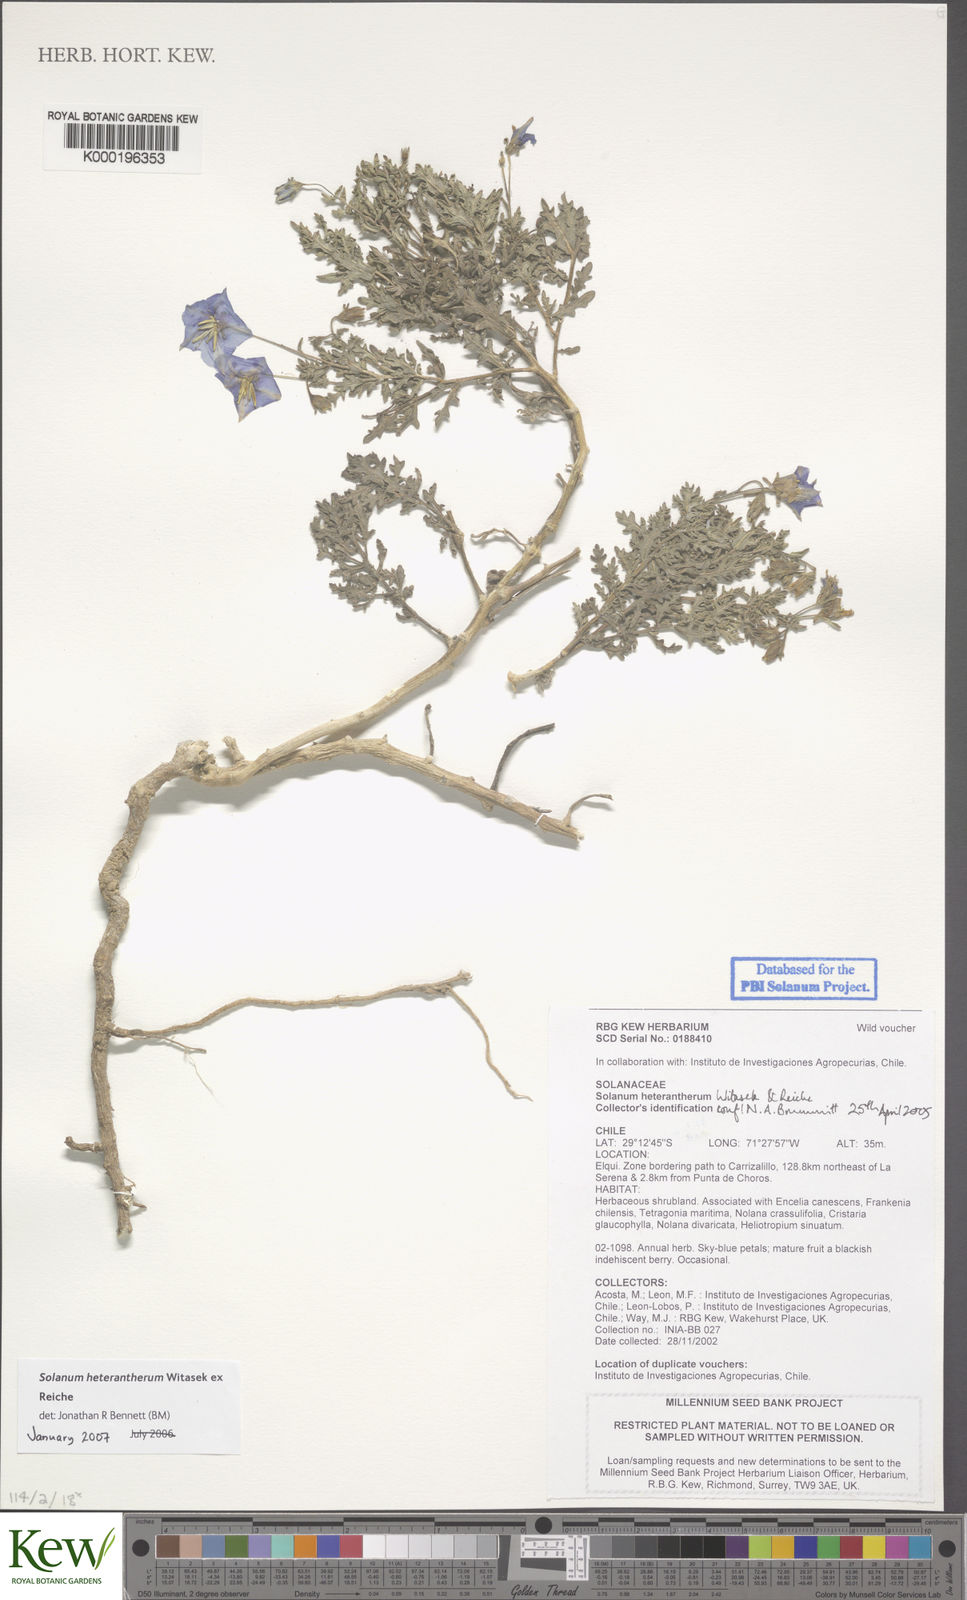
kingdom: Plantae
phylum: Tracheophyta
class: Magnoliopsida
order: Solanales
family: Solanaceae
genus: Solanum
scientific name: Solanum trinominum
